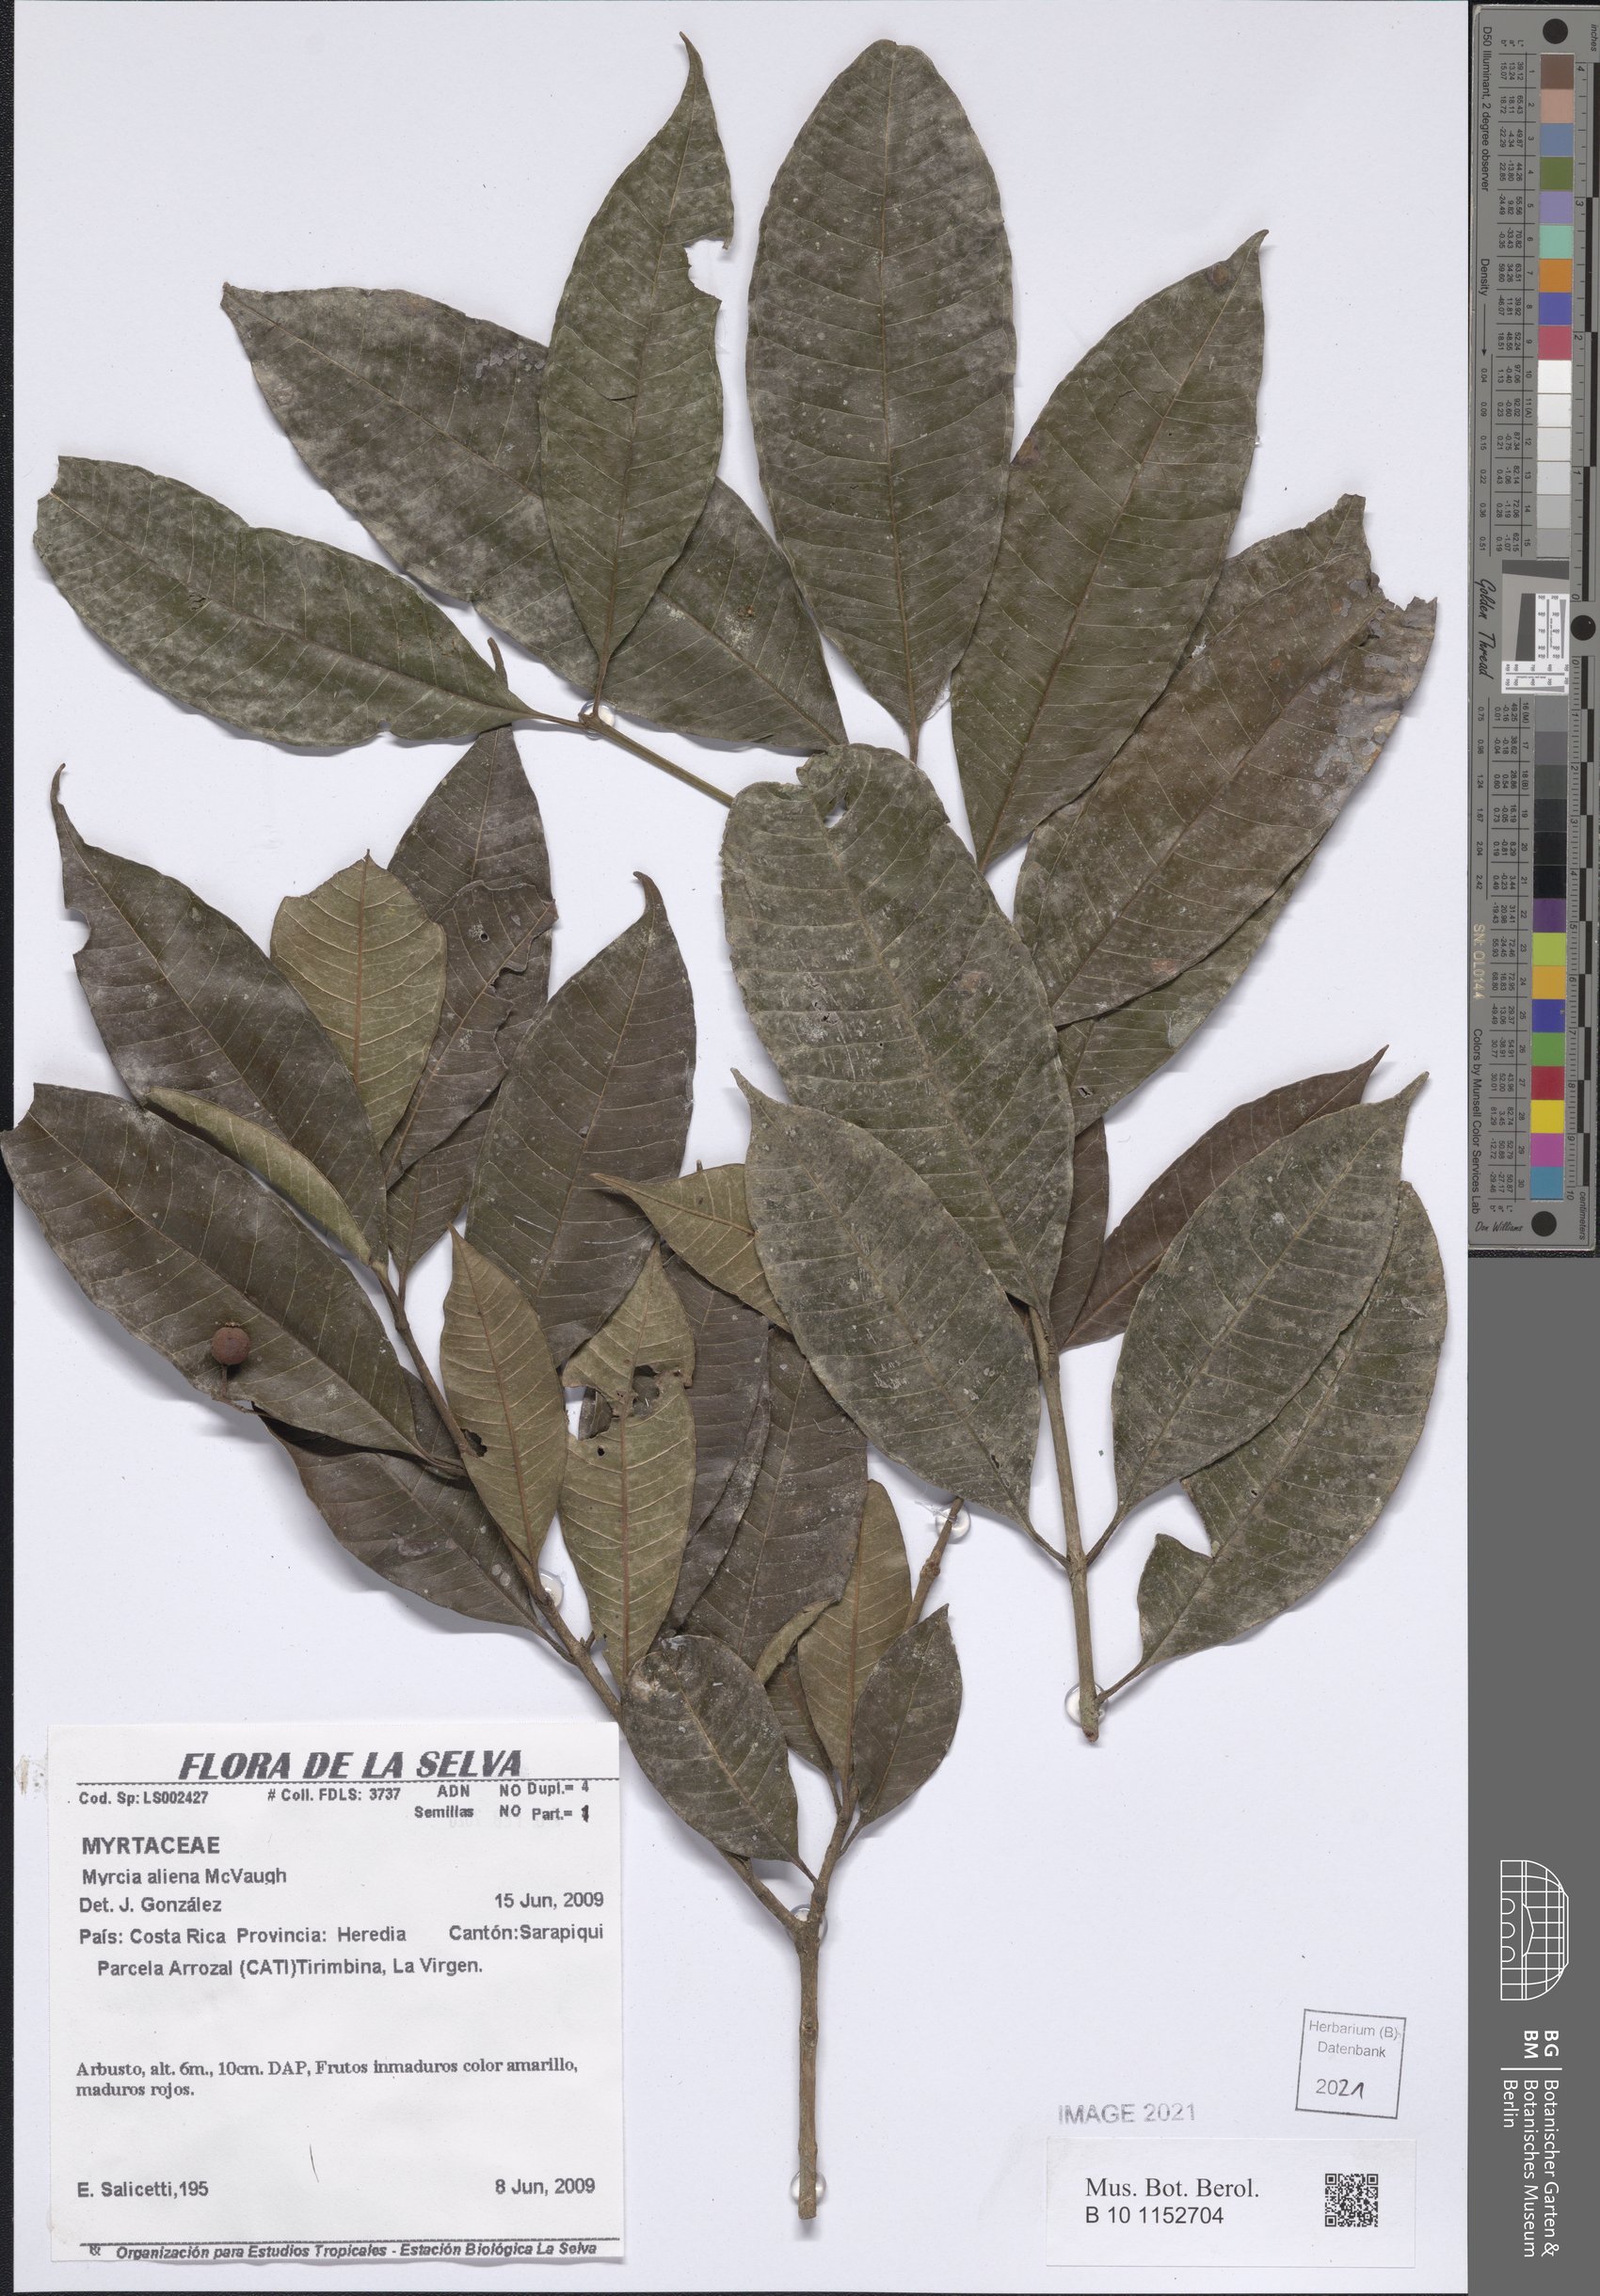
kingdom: Plantae
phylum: Tracheophyta
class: Magnoliopsida
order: Myrtales
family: Myrtaceae
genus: Myrcia
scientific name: Myrcia aliena
